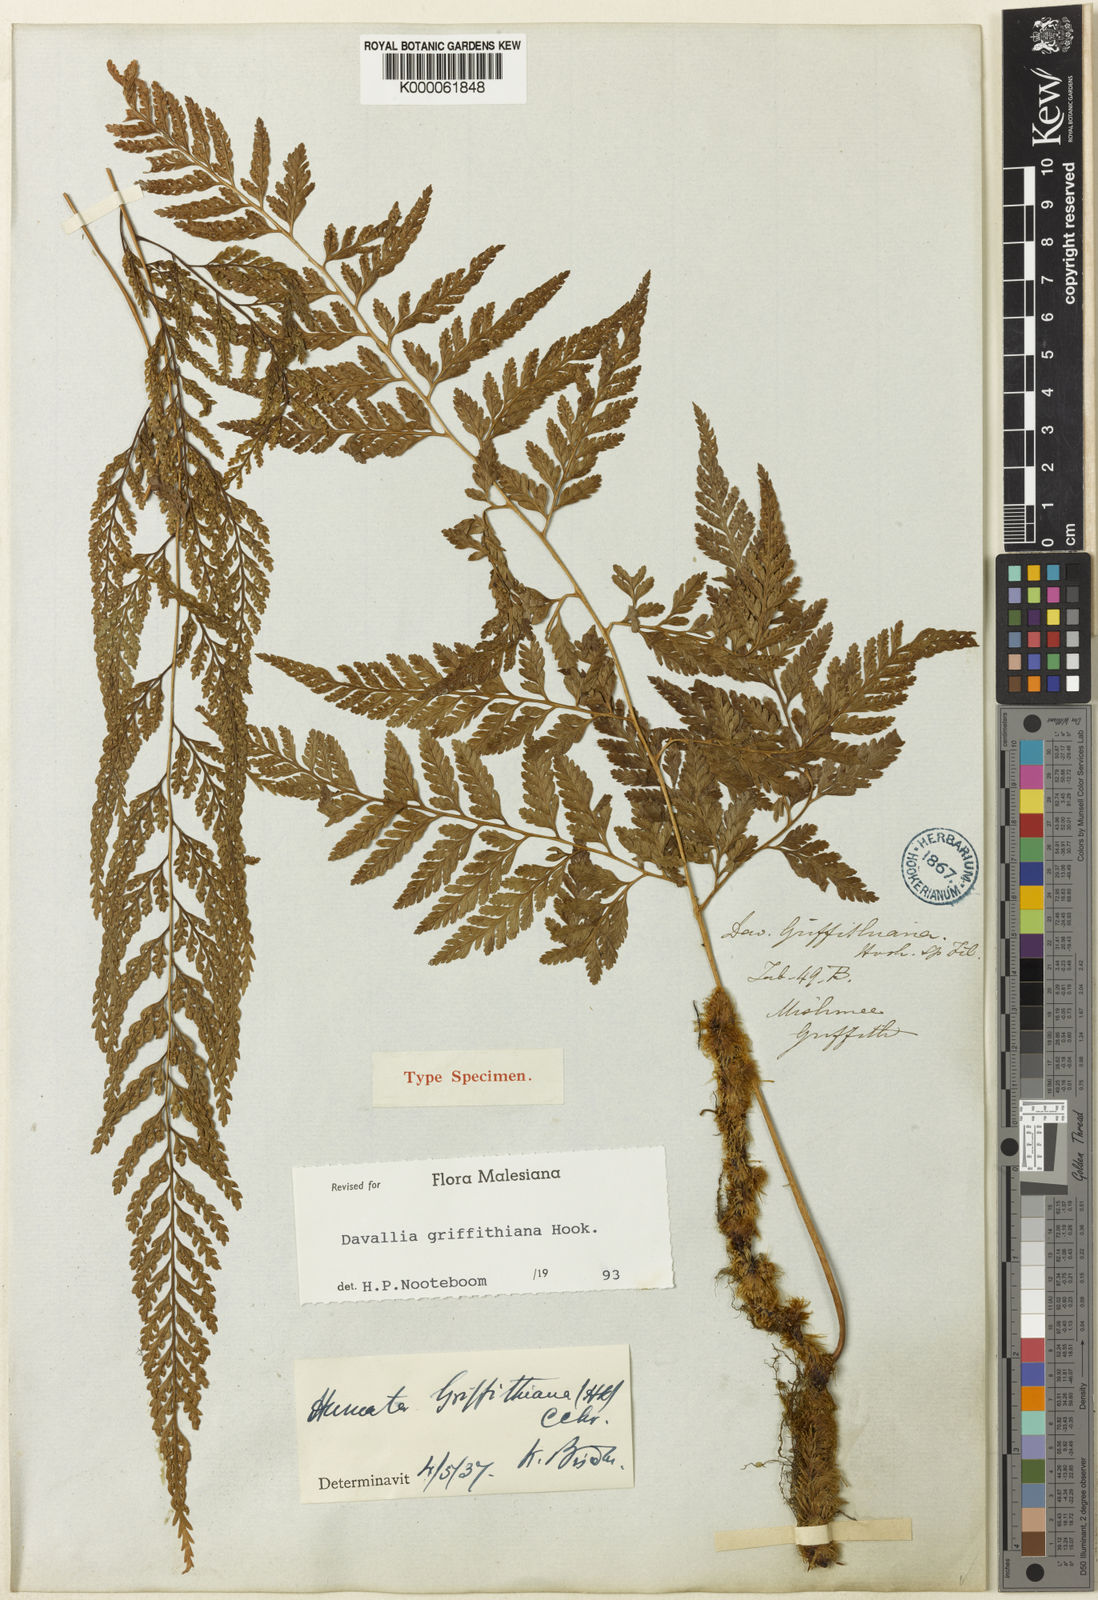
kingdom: Plantae
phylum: Tracheophyta
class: Polypodiopsida
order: Polypodiales
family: Davalliaceae
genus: Davallia
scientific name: Davallia griffithiana
